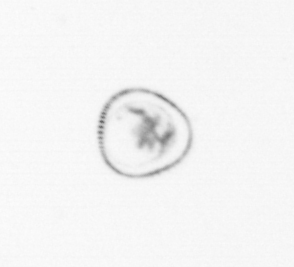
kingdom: Chromista
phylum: Myzozoa
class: Dinophyceae
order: Noctilucales
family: Noctilucaceae
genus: Noctiluca
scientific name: Noctiluca scintillans
